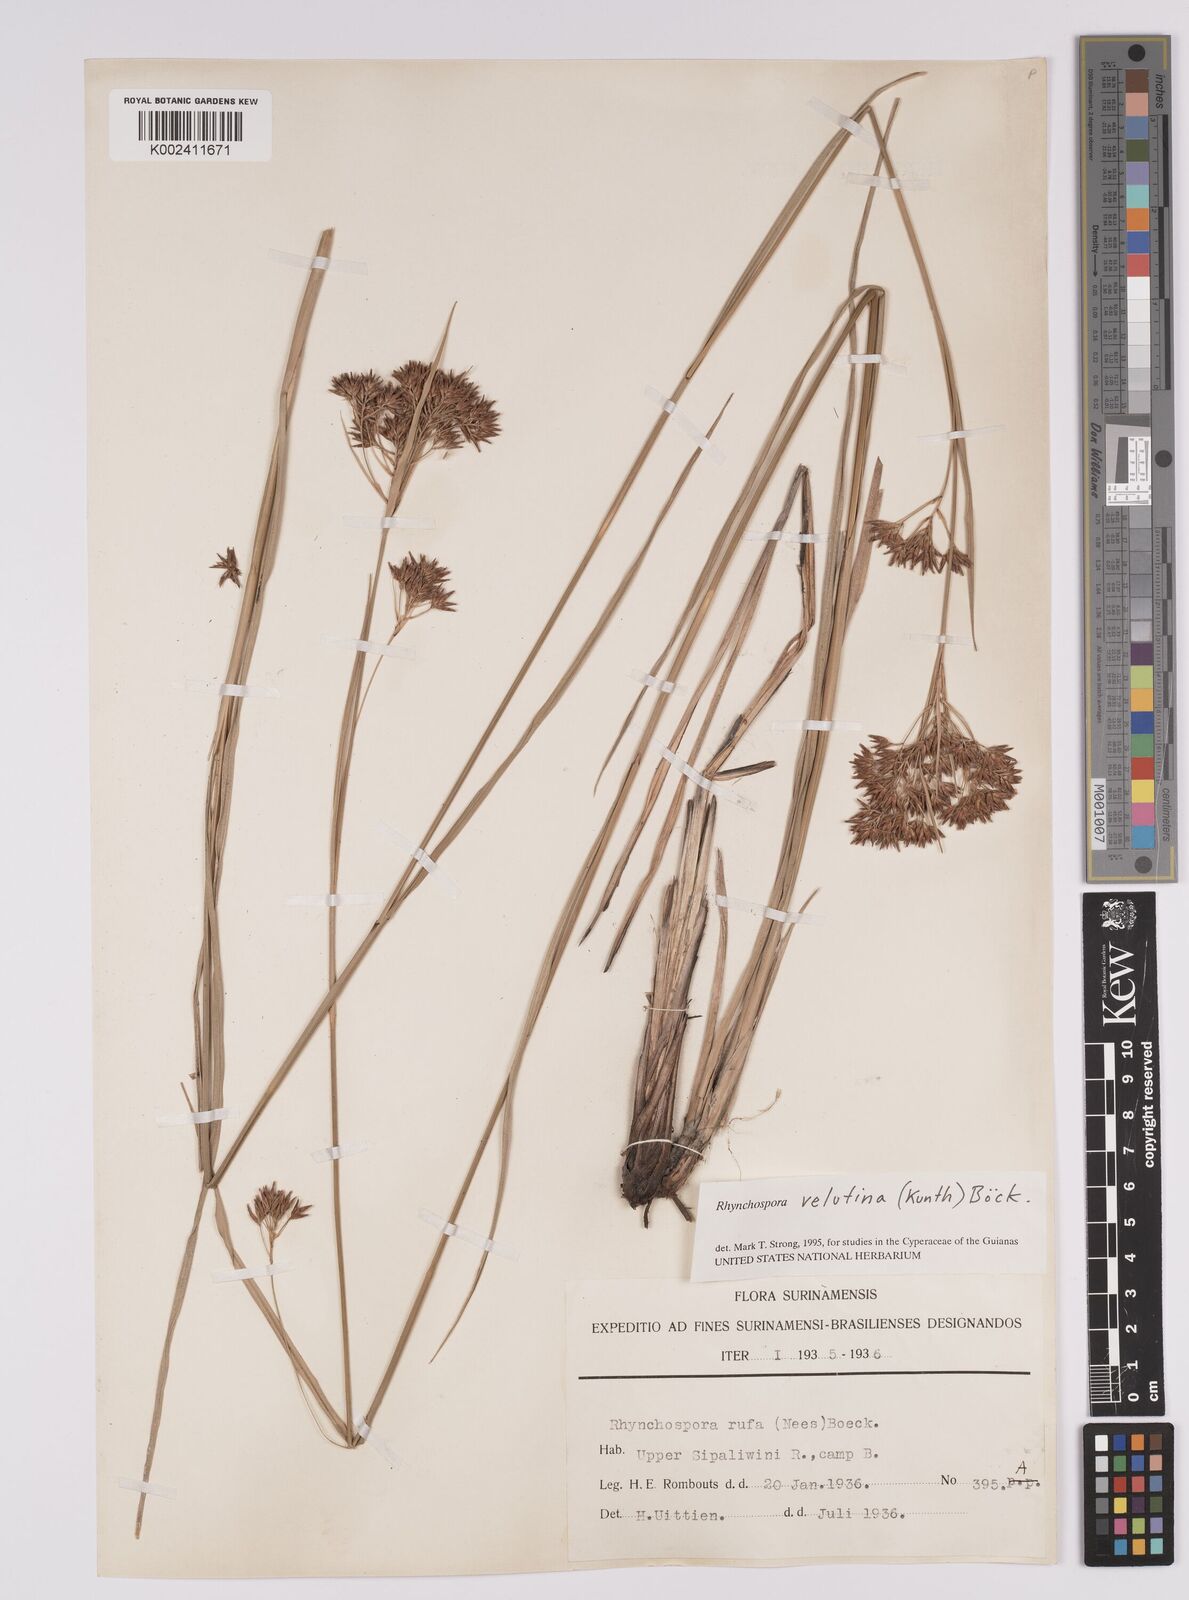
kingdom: Plantae
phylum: Tracheophyta
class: Liliopsida
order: Poales
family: Cyperaceae
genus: Rhynchospora
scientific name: Rhynchospora velutina
